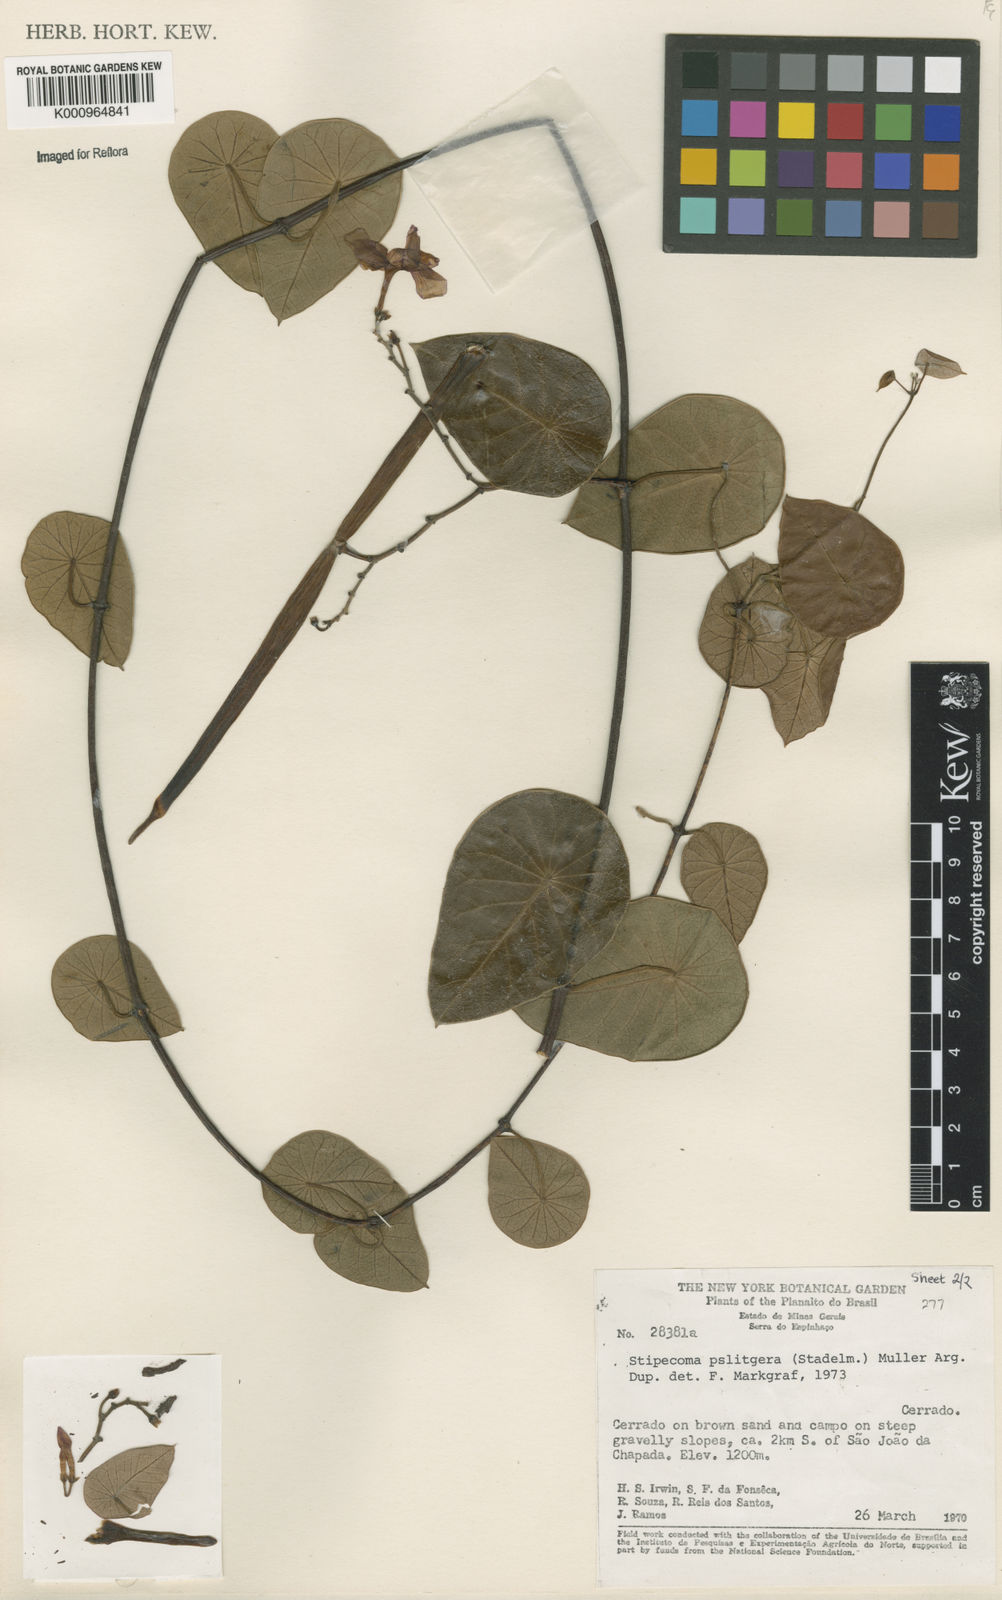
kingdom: Plantae
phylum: Tracheophyta
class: Magnoliopsida
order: Gentianales
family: Apocynaceae
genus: Stipecoma
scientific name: Stipecoma
